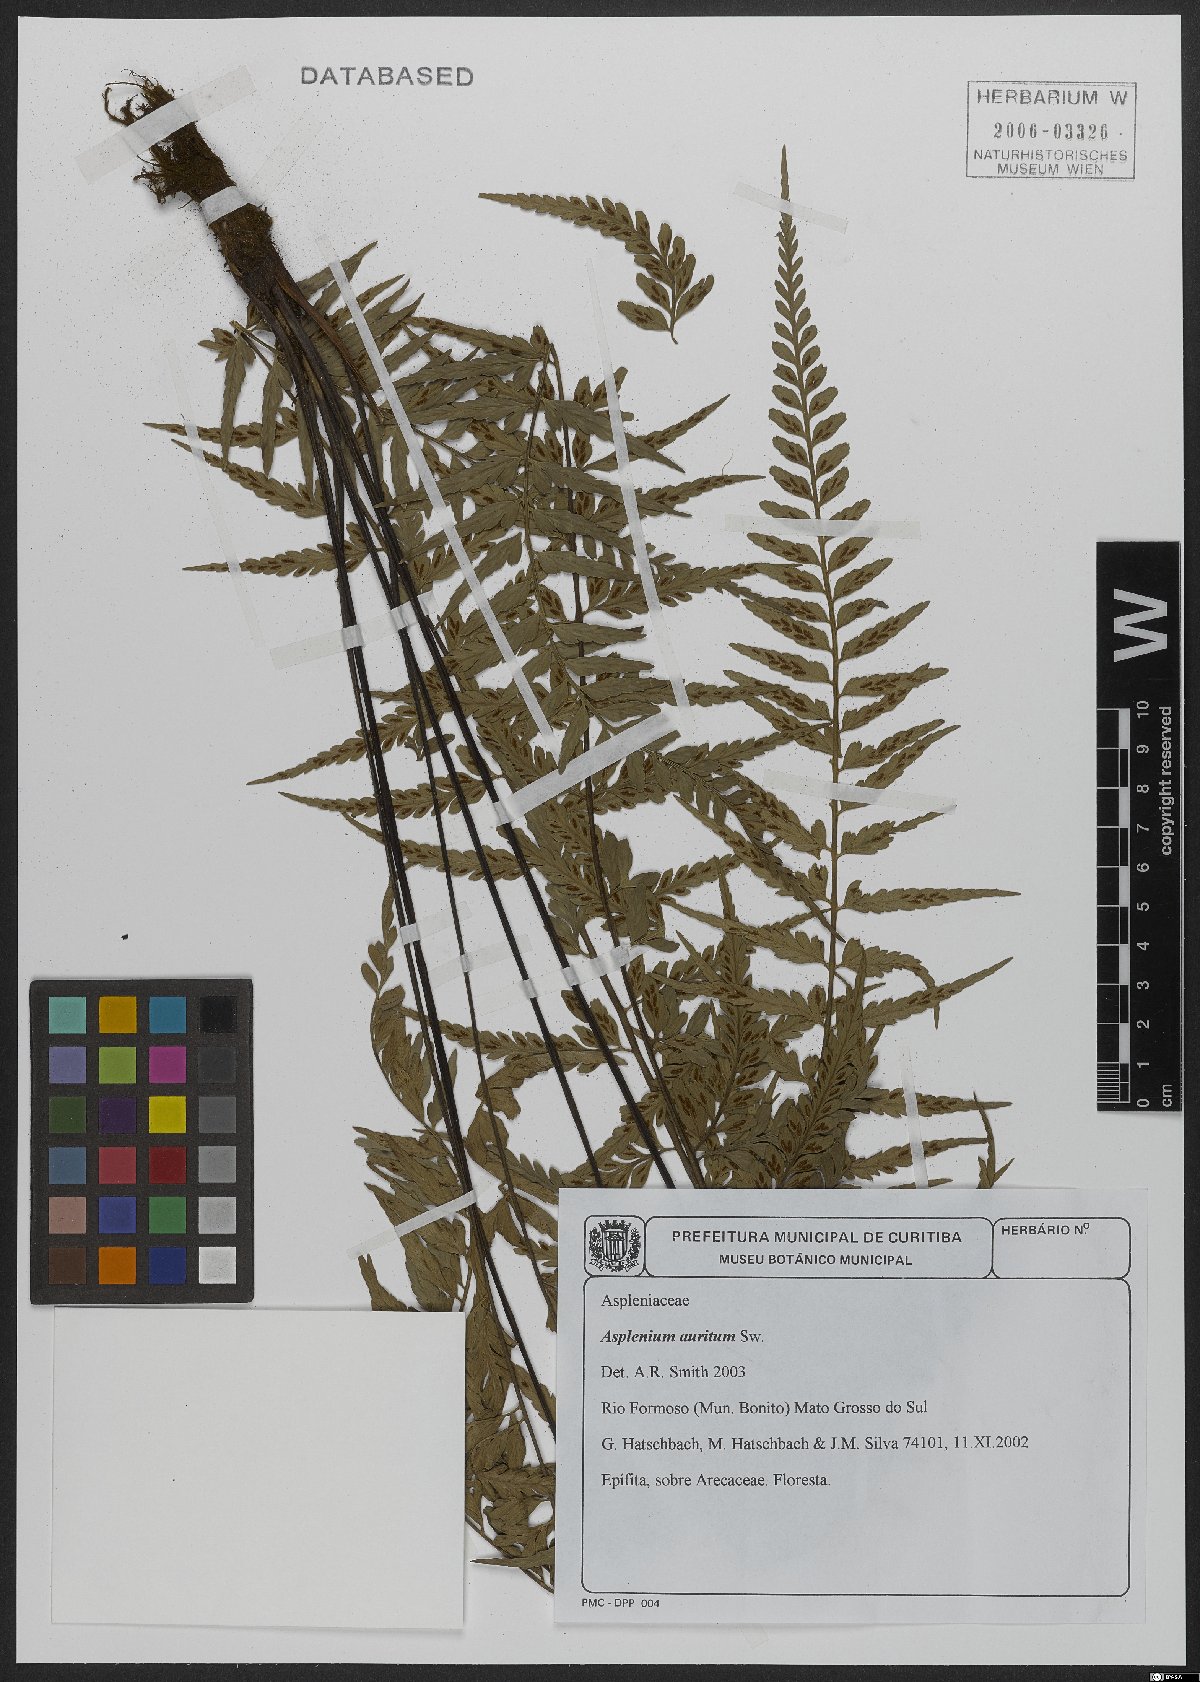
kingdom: Plantae
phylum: Tracheophyta
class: Polypodiopsida
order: Polypodiales
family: Aspleniaceae
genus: Asplenium
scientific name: Asplenium auritum
